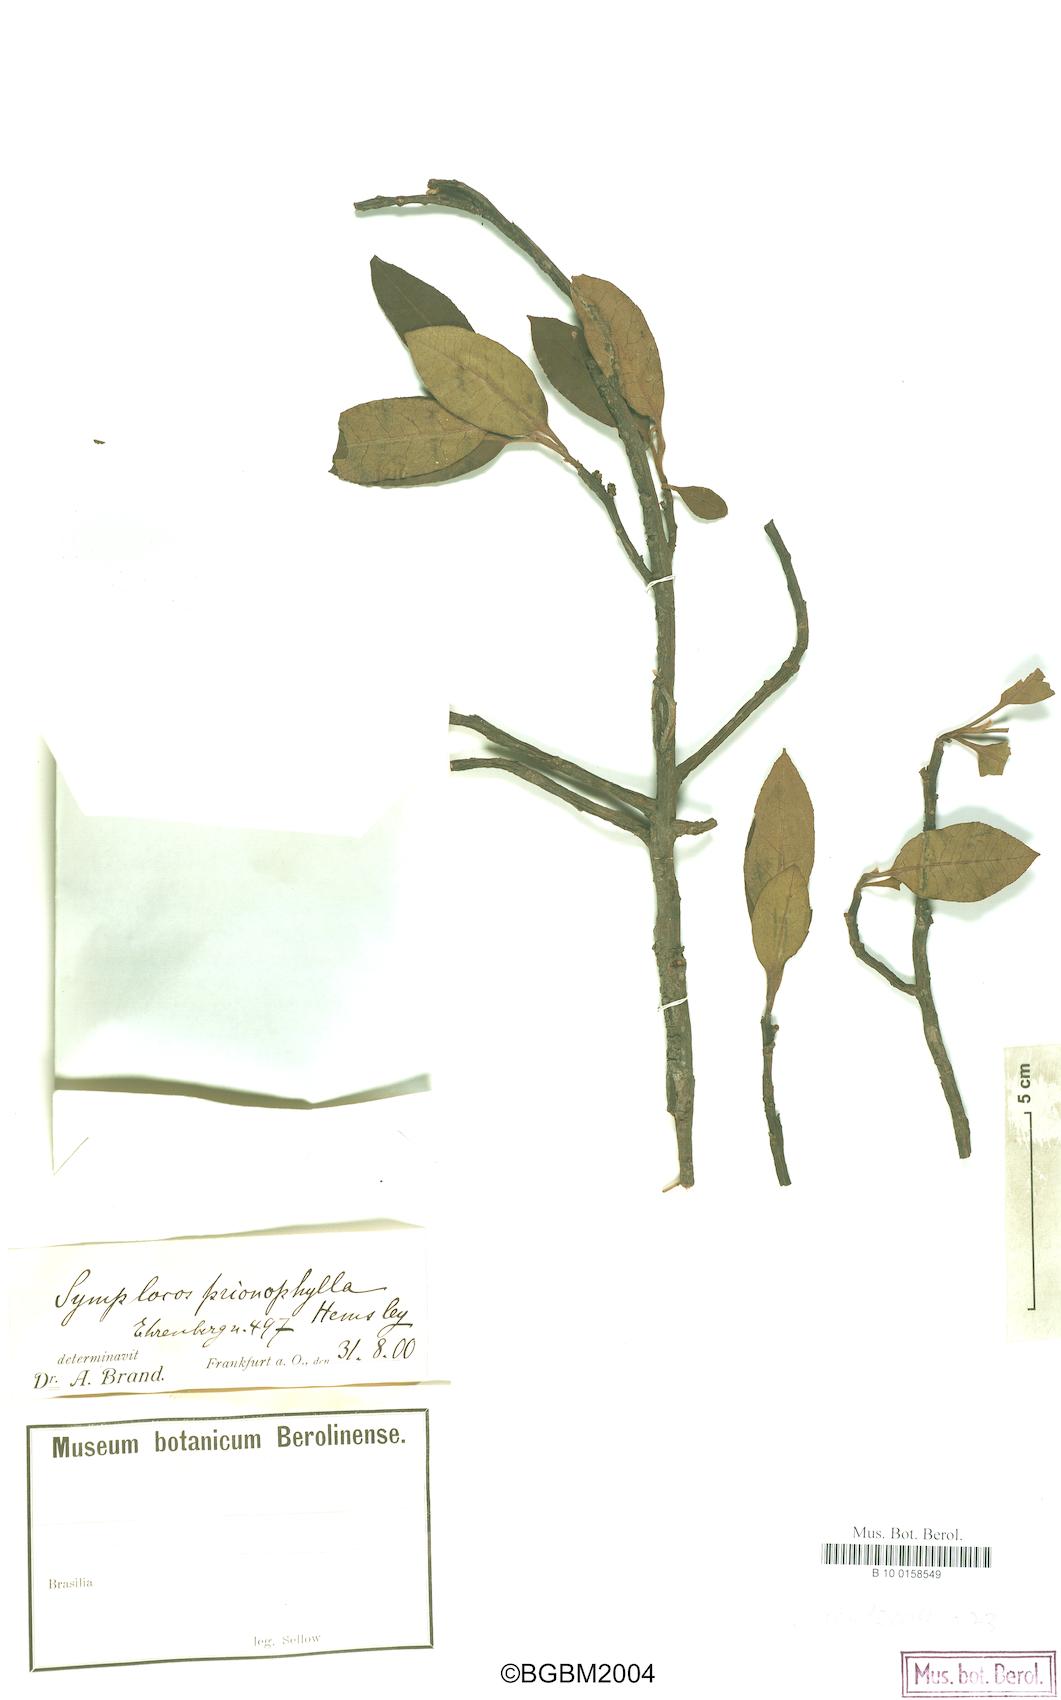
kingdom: Plantae
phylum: Tracheophyta
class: Magnoliopsida
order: Ericales
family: Symplocaceae
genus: Symplocos
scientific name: Symplocos citrea
